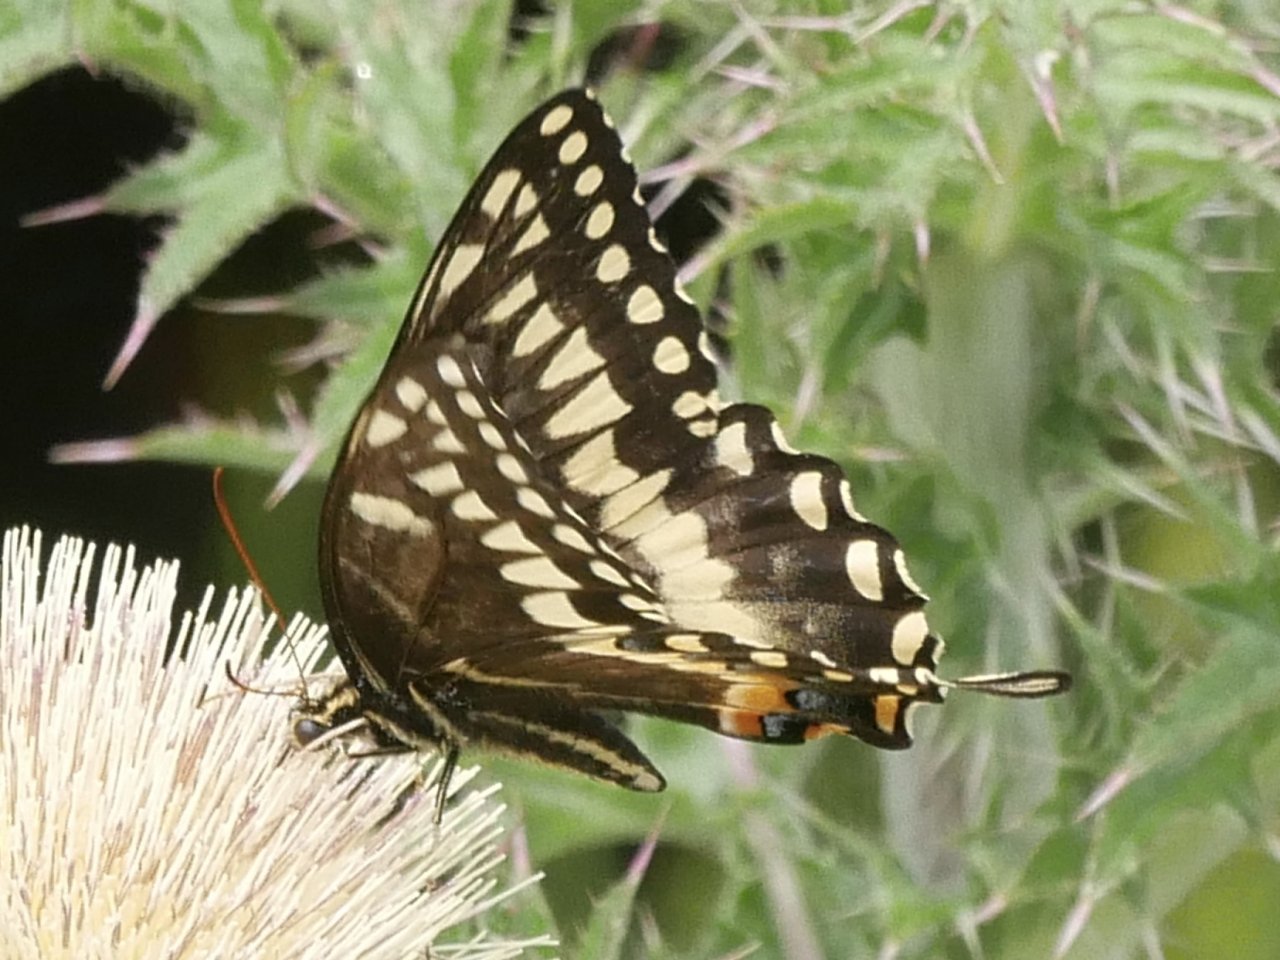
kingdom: Animalia
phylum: Arthropoda
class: Insecta
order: Lepidoptera
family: Papilionidae
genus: Pterourus
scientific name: Pterourus palamedes
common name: Palamedes Swallowtail
